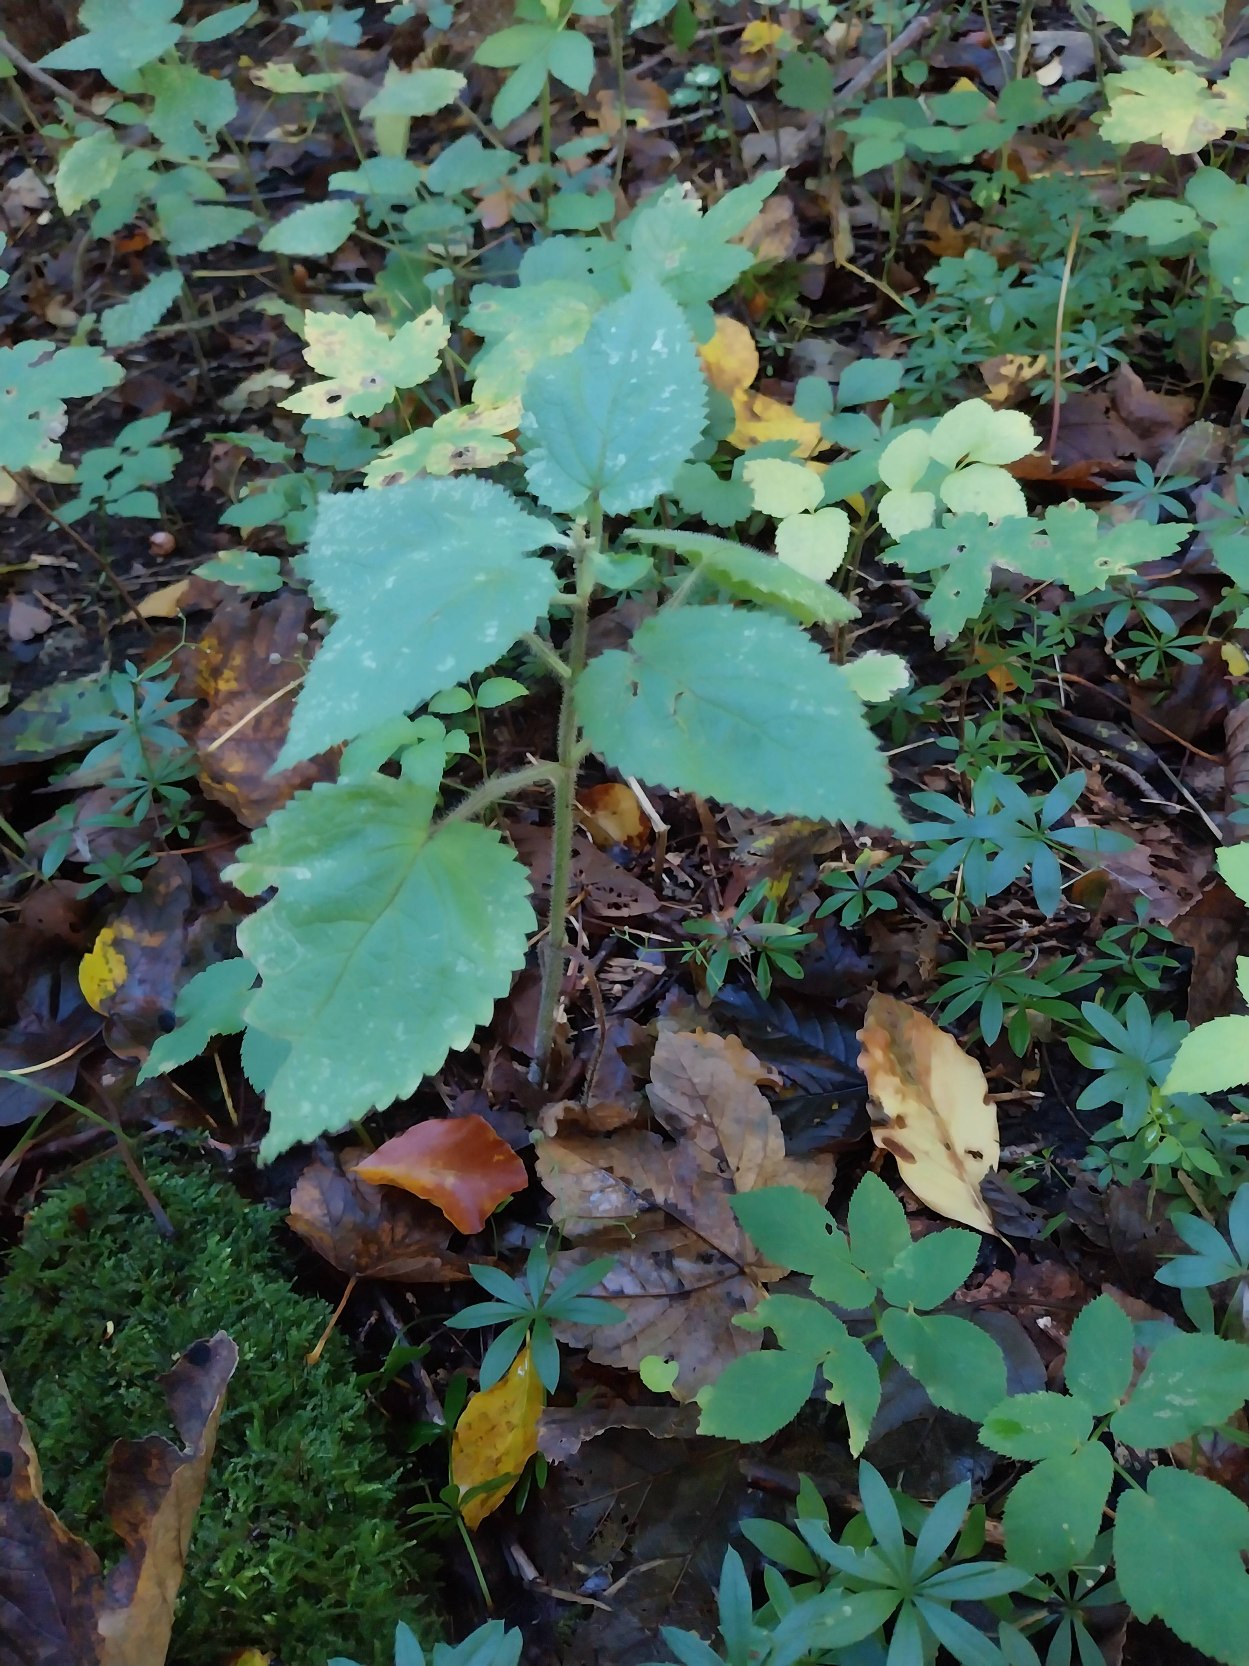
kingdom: Plantae
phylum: Tracheophyta
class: Magnoliopsida
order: Lamiales
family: Lamiaceae
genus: Stachys
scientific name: Stachys sylvatica
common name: Skov-galtetand
